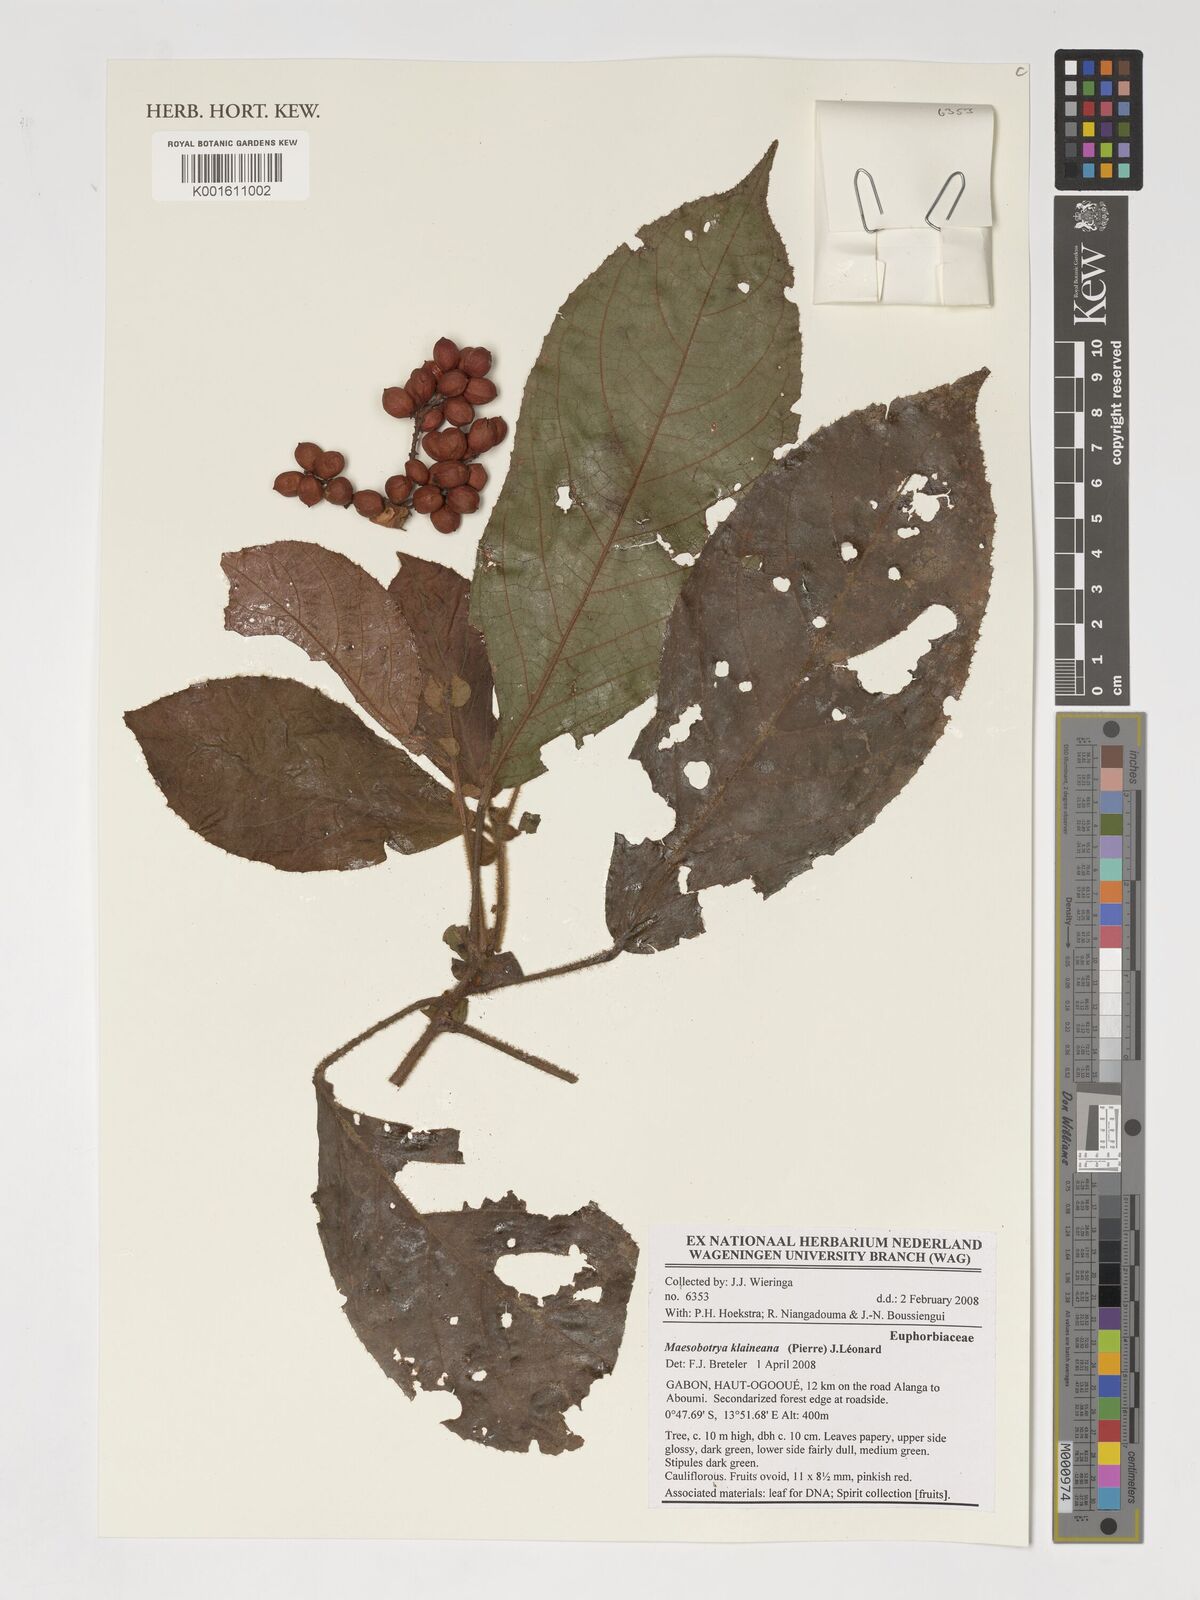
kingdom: Plantae
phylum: Tracheophyta
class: Magnoliopsida
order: Malpighiales
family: Phyllanthaceae
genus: Maesobotrya
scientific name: Maesobotrya klaineana
